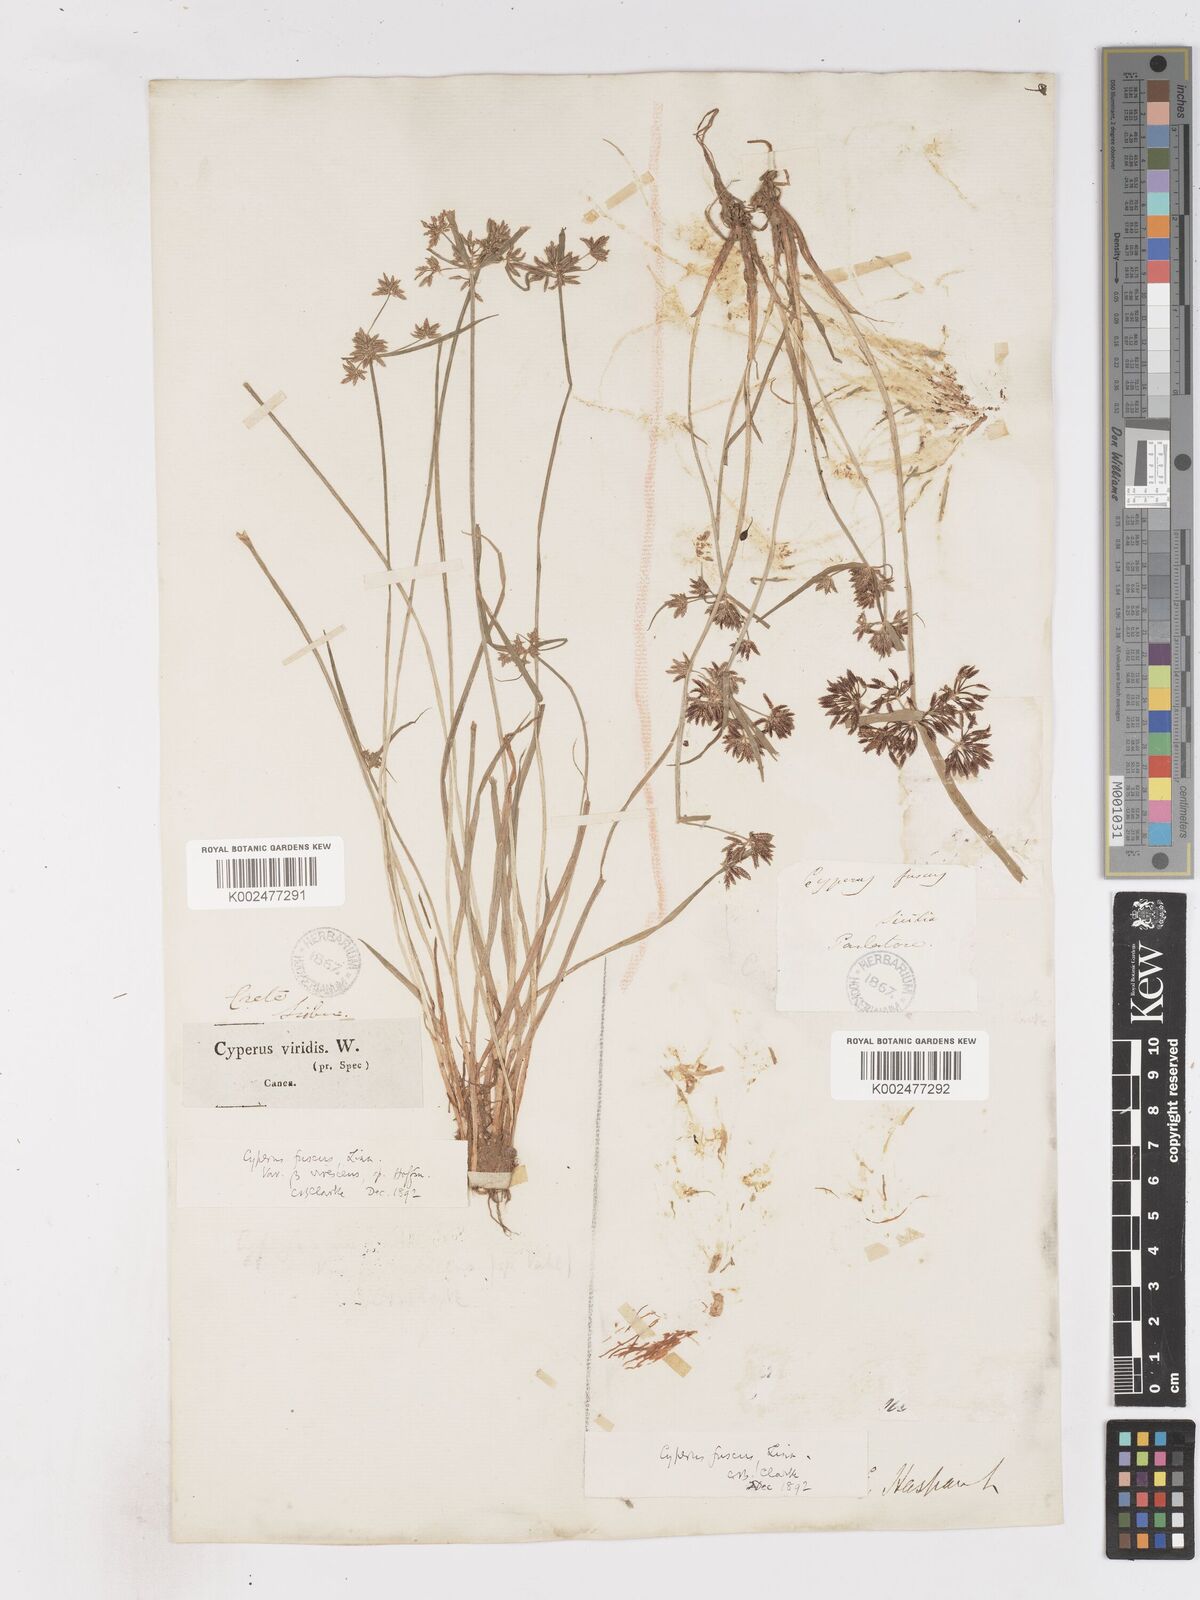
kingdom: Plantae
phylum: Tracheophyta
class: Liliopsida
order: Poales
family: Cyperaceae
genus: Cyperus
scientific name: Cyperus fuscus
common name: Brown galingale
